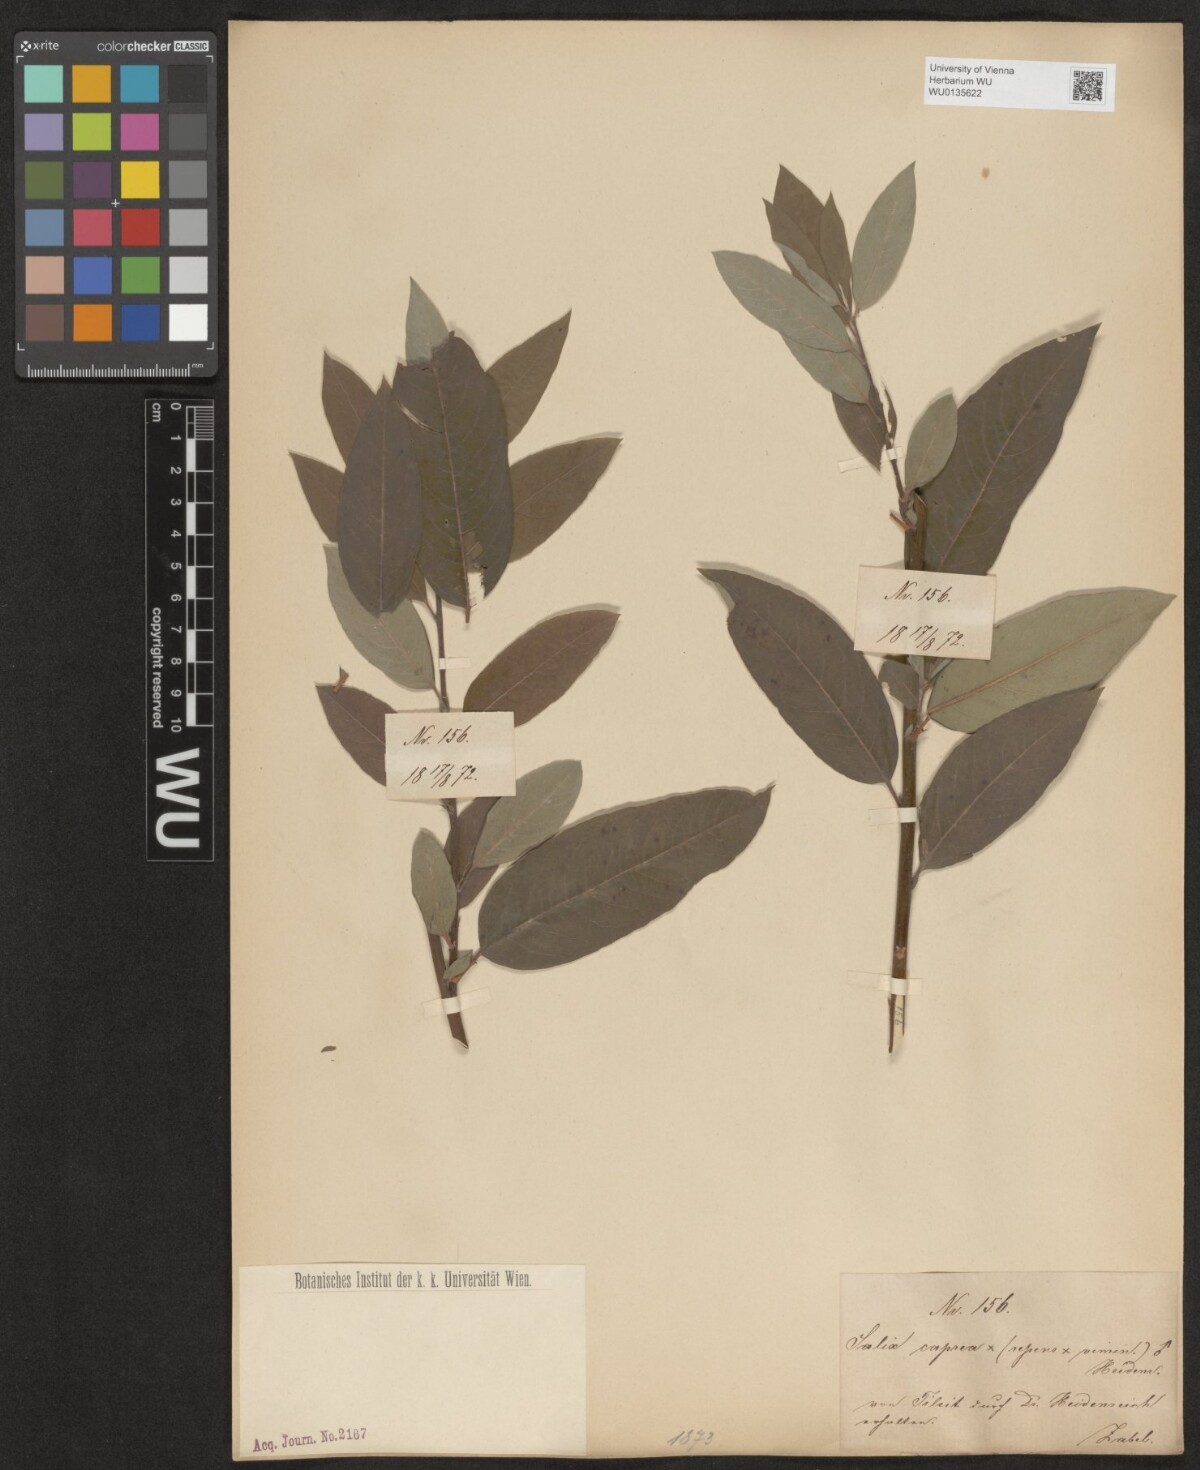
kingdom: Plantae
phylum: Tracheophyta
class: Magnoliopsida
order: Malpighiales
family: Salicaceae
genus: Salix
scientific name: Salix
